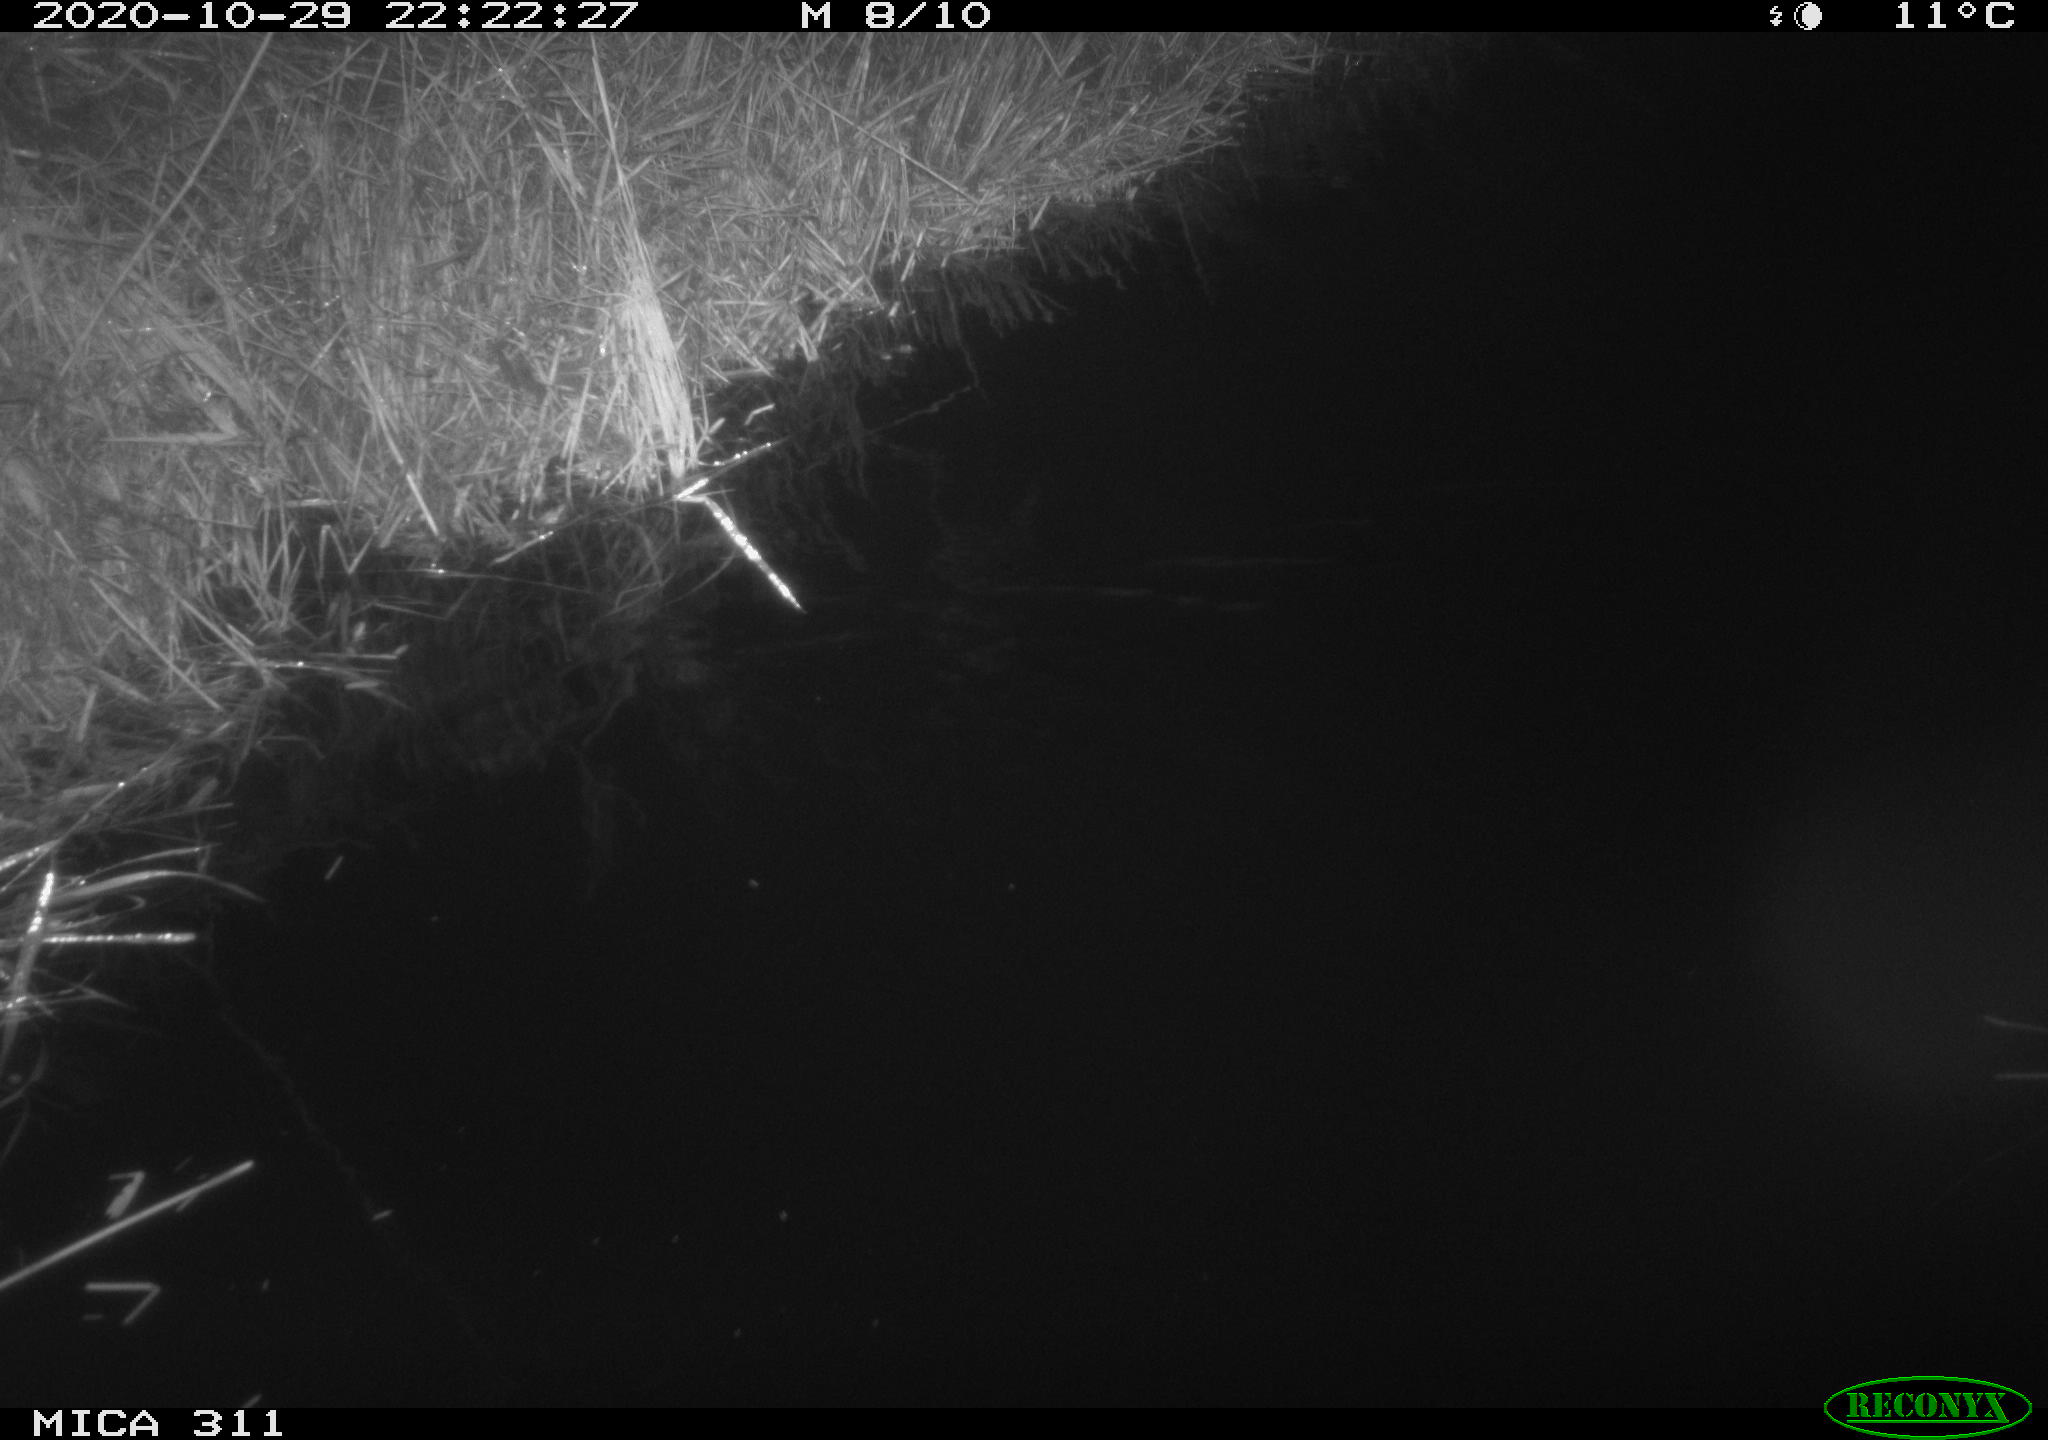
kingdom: Animalia
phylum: Chordata
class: Mammalia
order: Rodentia
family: Muridae
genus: Rattus
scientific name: Rattus norvegicus
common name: Brown rat
